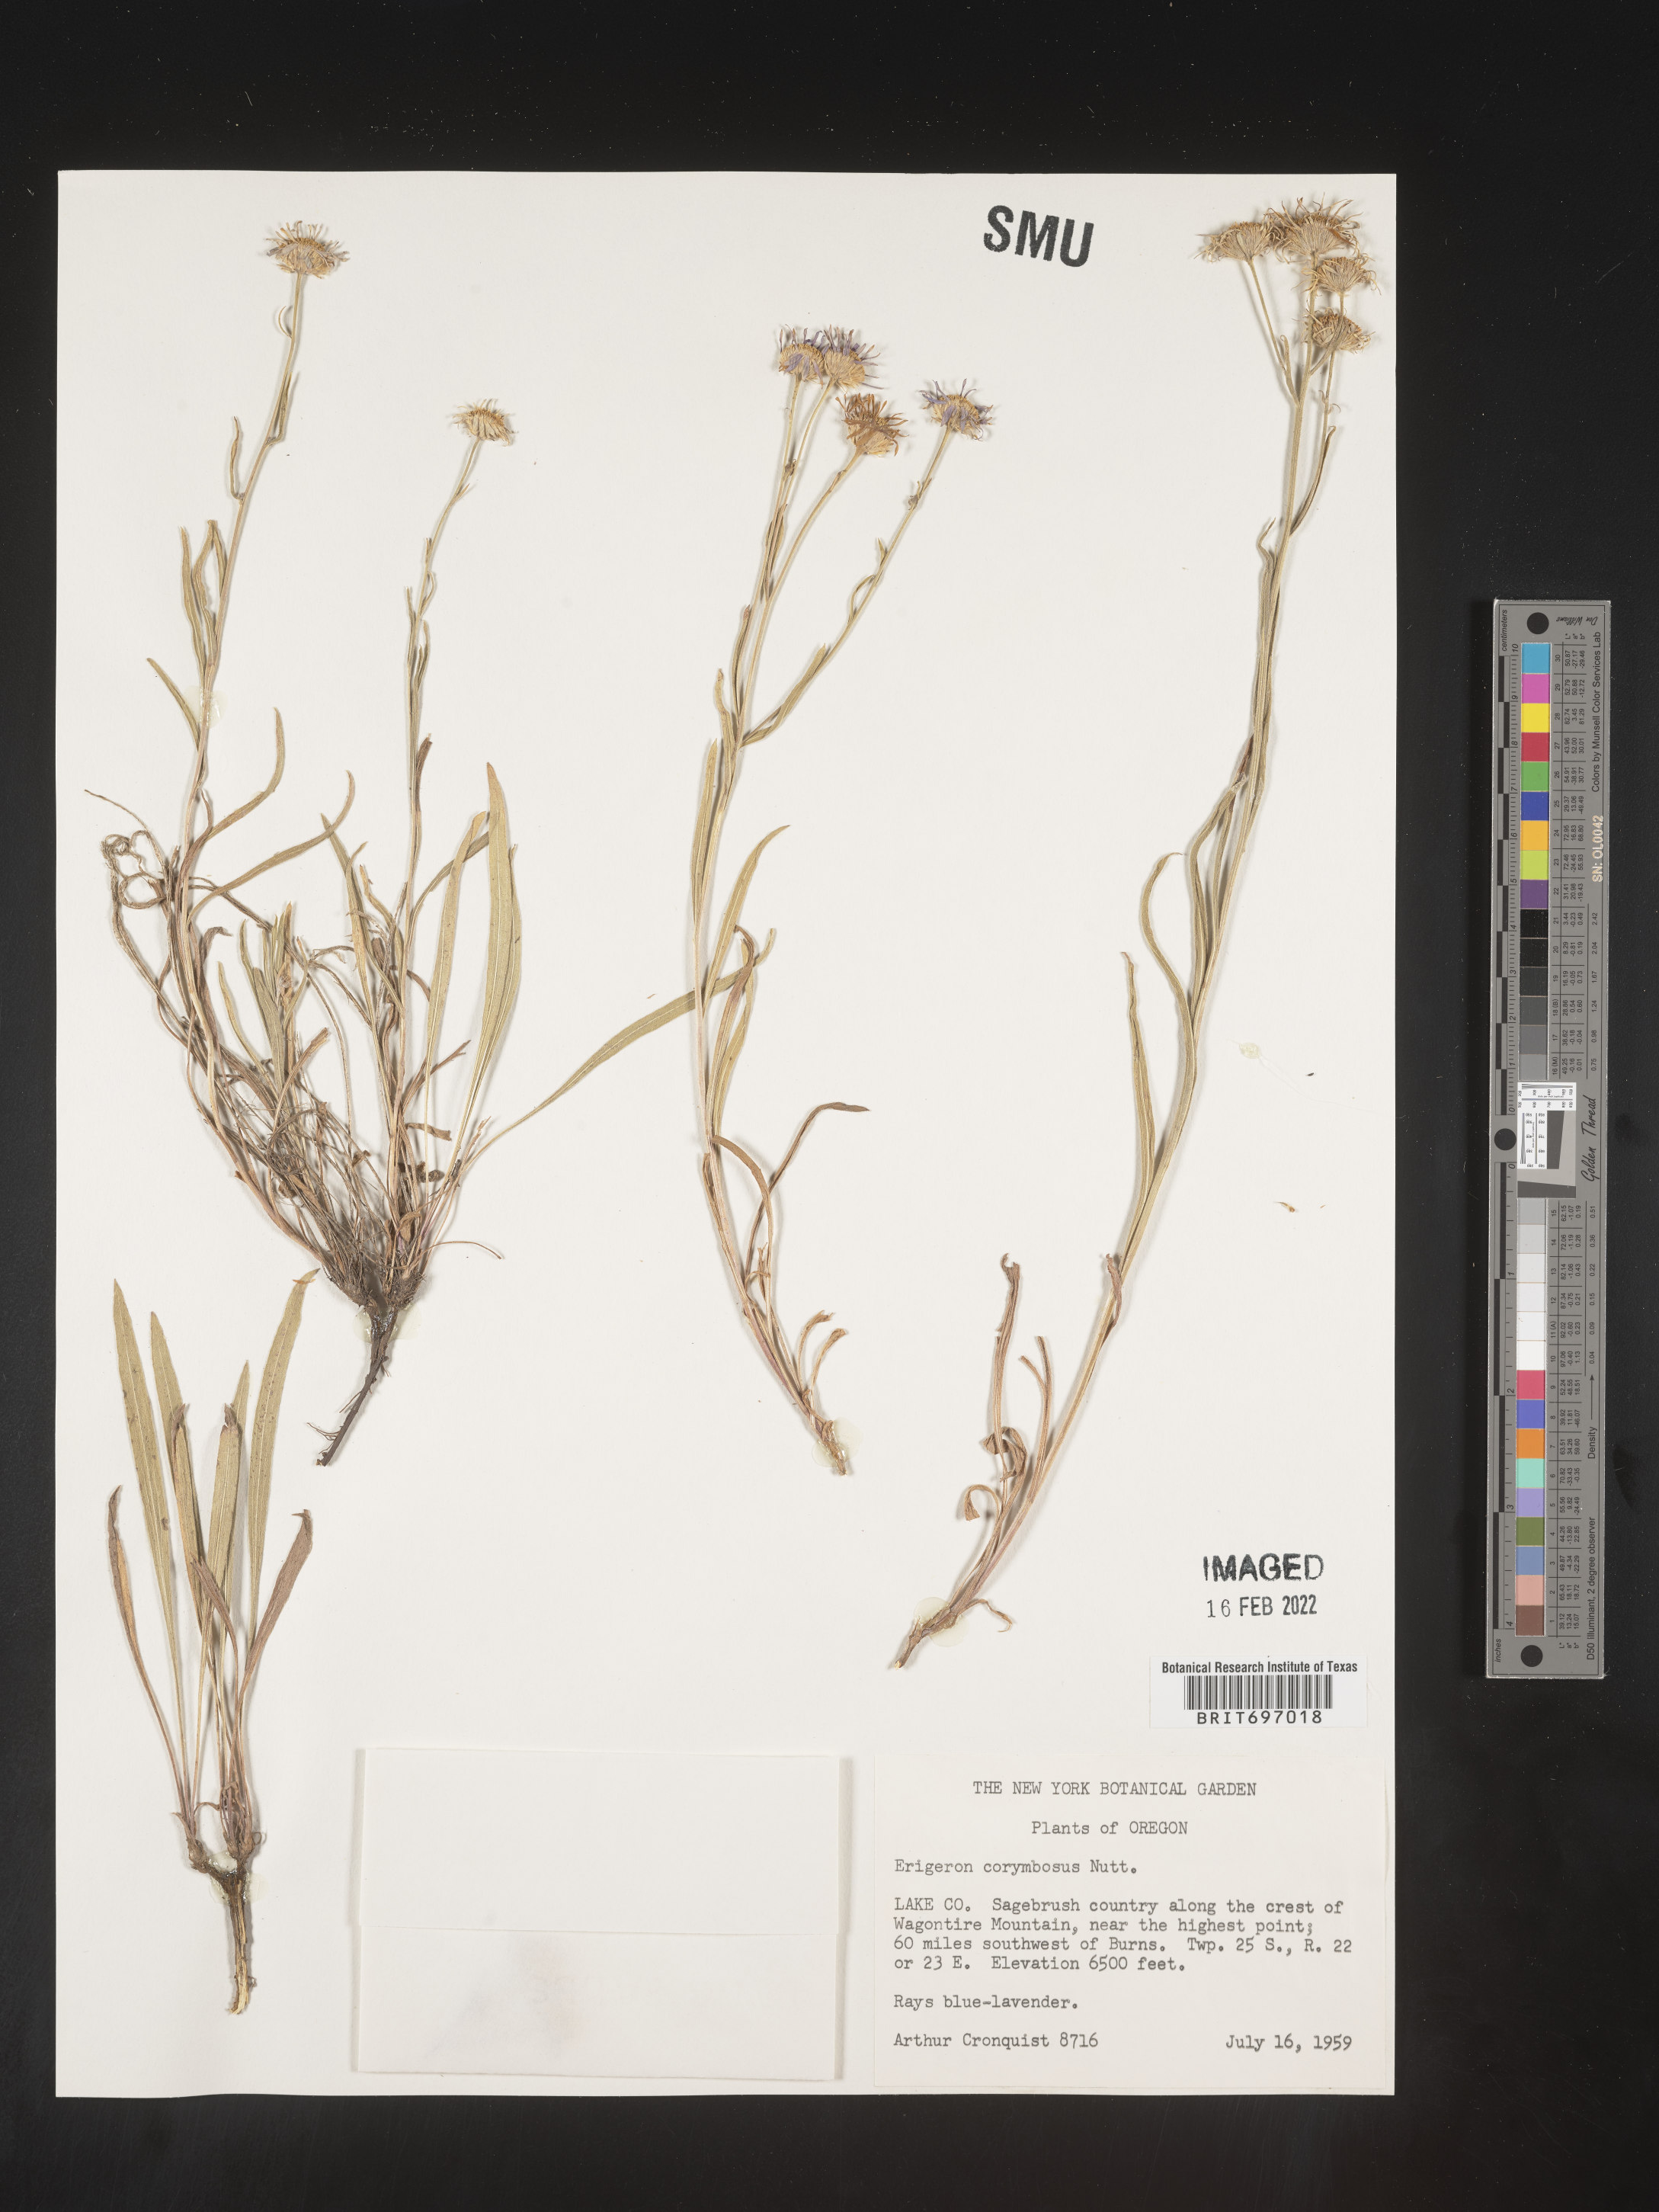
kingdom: Plantae
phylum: Tracheophyta
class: Magnoliopsida
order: Asterales
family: Asteraceae
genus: Erigeron
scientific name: Erigeron corymbosus
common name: Longleaf fleabane
